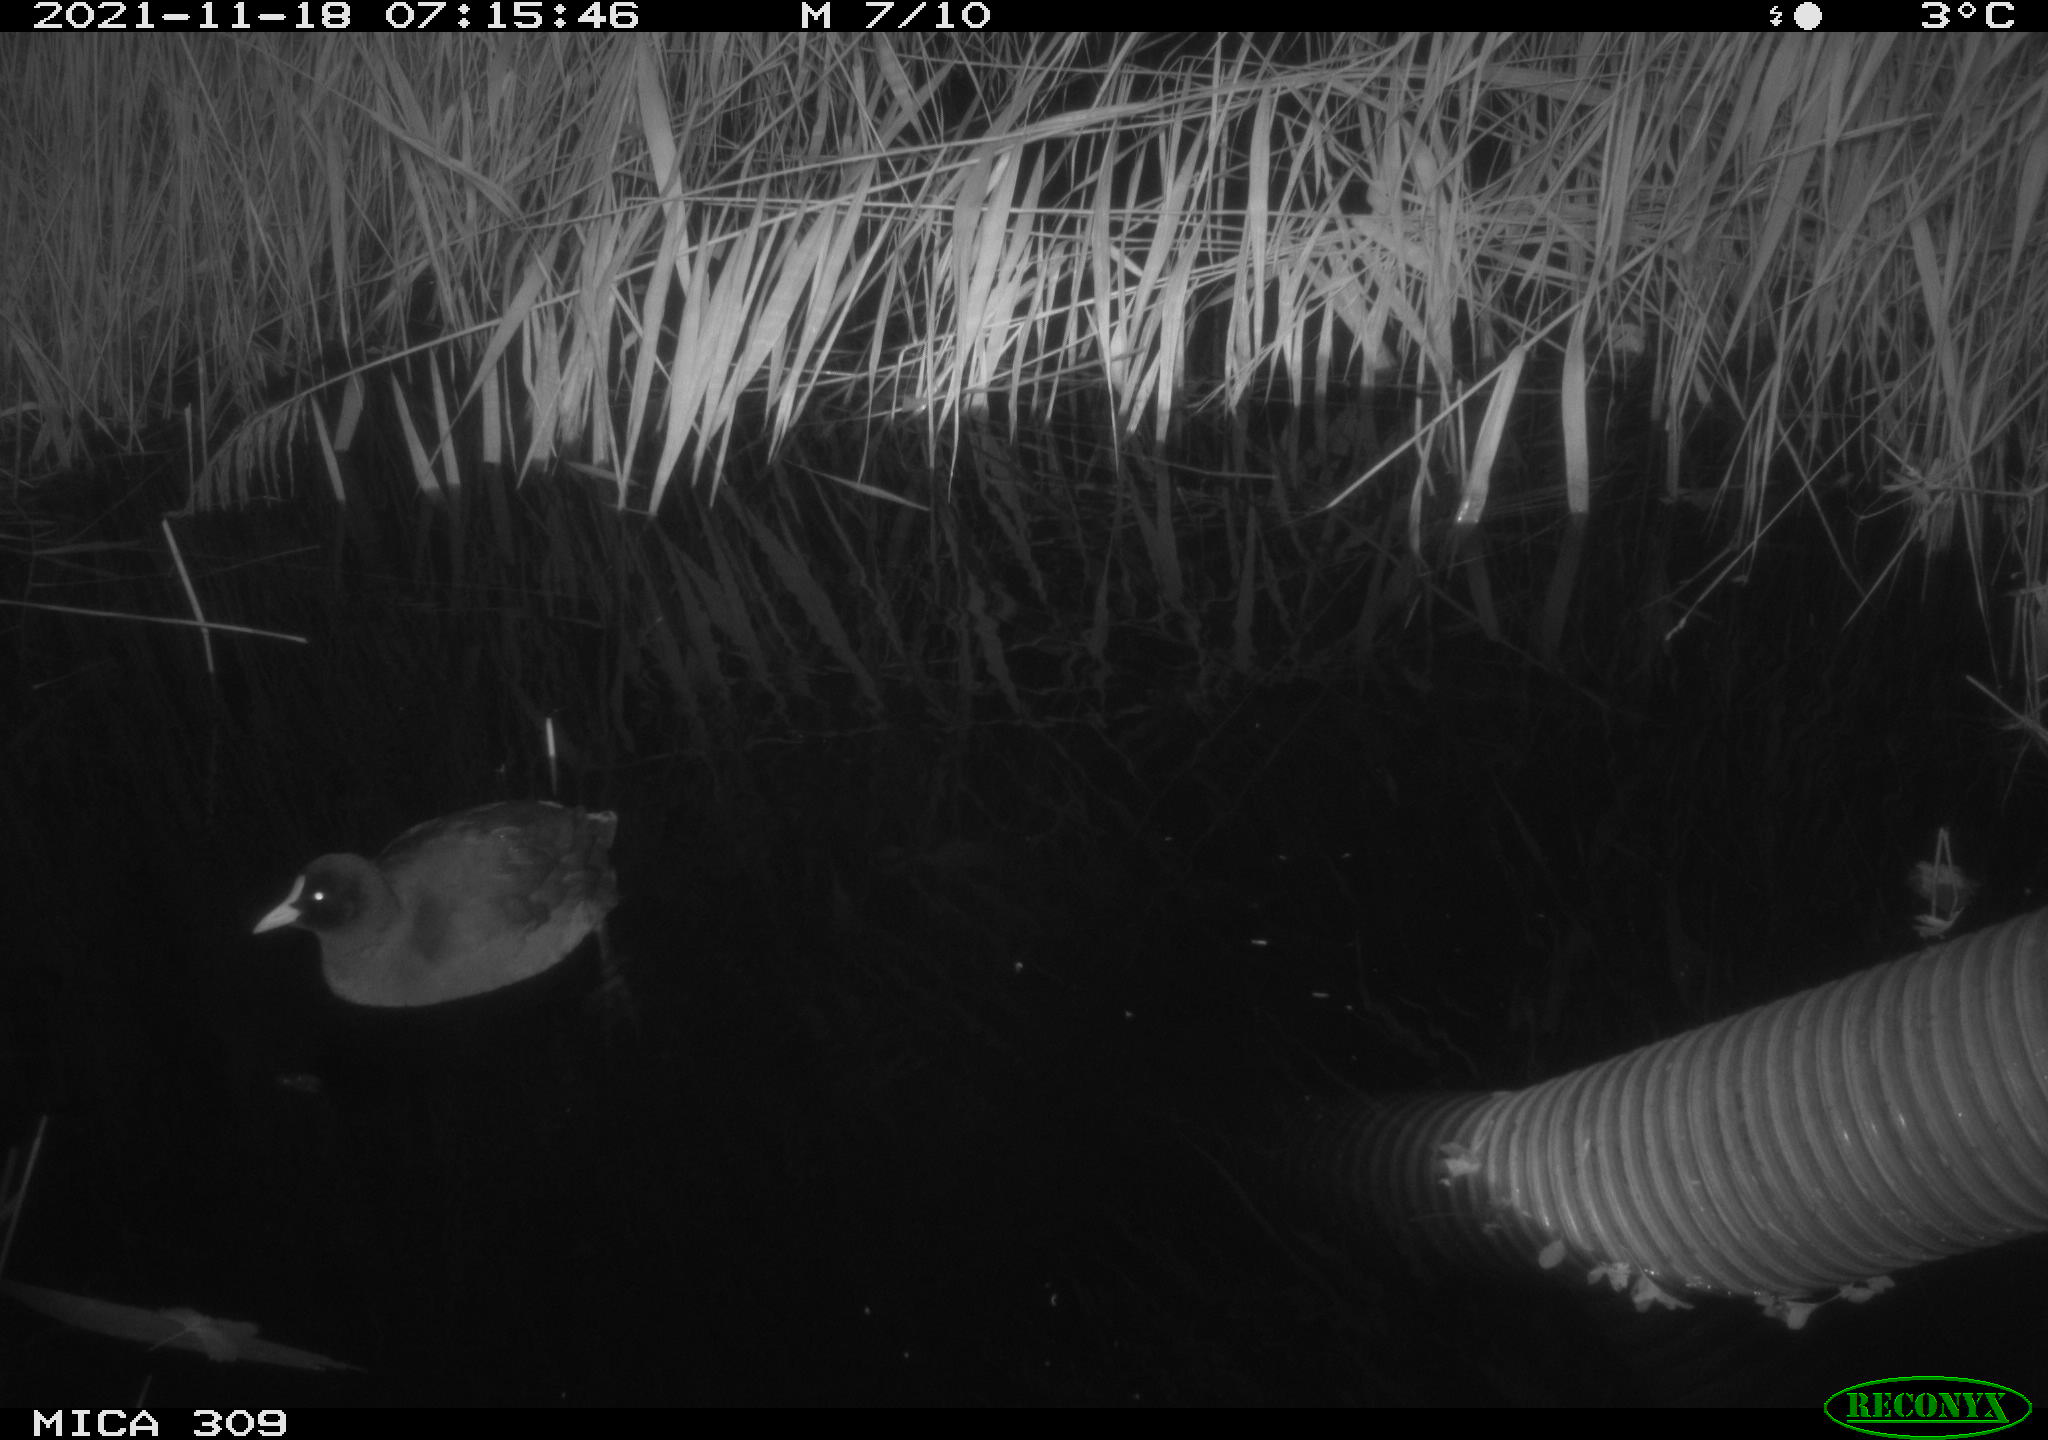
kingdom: Animalia
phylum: Chordata
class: Aves
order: Gruiformes
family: Rallidae
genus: Fulica
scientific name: Fulica atra
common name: Eurasian coot
